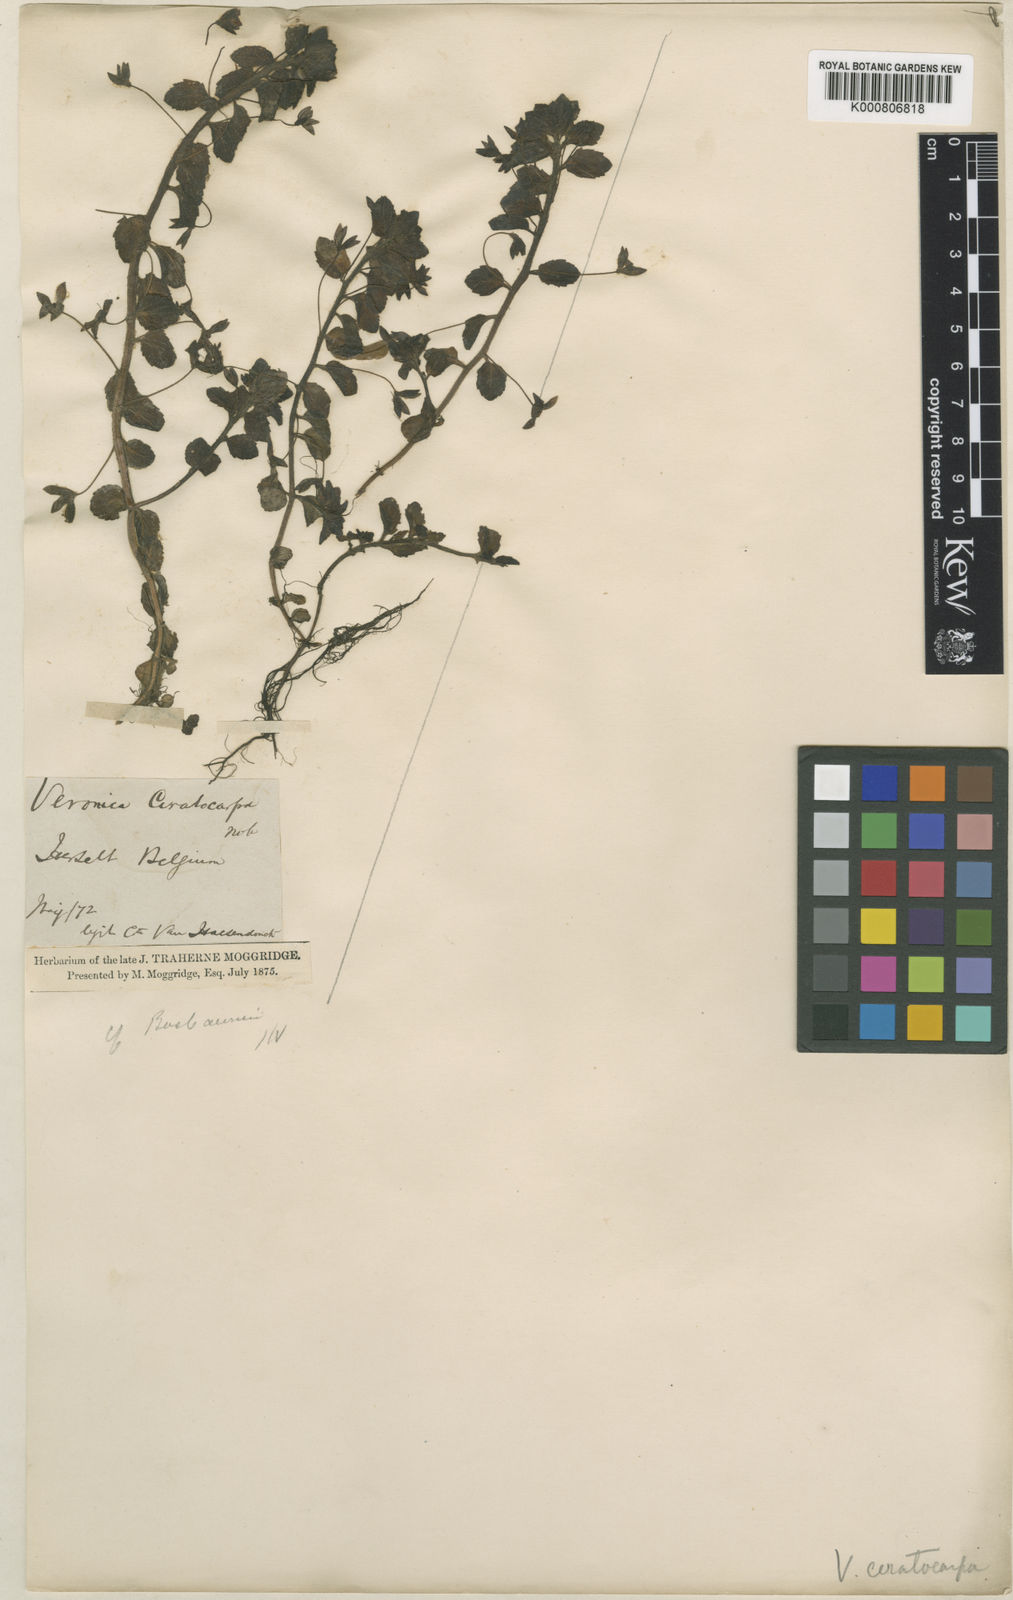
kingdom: Plantae
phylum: Tracheophyta
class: Magnoliopsida
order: Lamiales
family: Plantaginaceae
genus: Veronica
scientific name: Veronica persica
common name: Common field-speedwell
